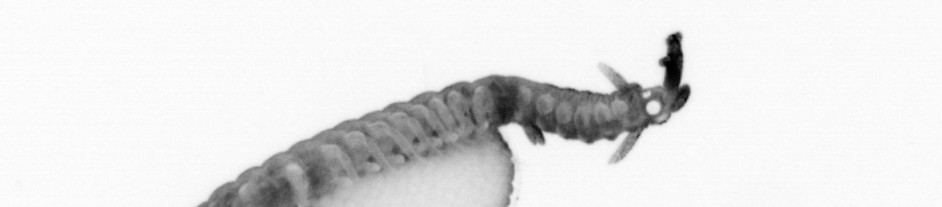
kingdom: Animalia
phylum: Annelida
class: Polychaeta
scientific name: Polychaeta
